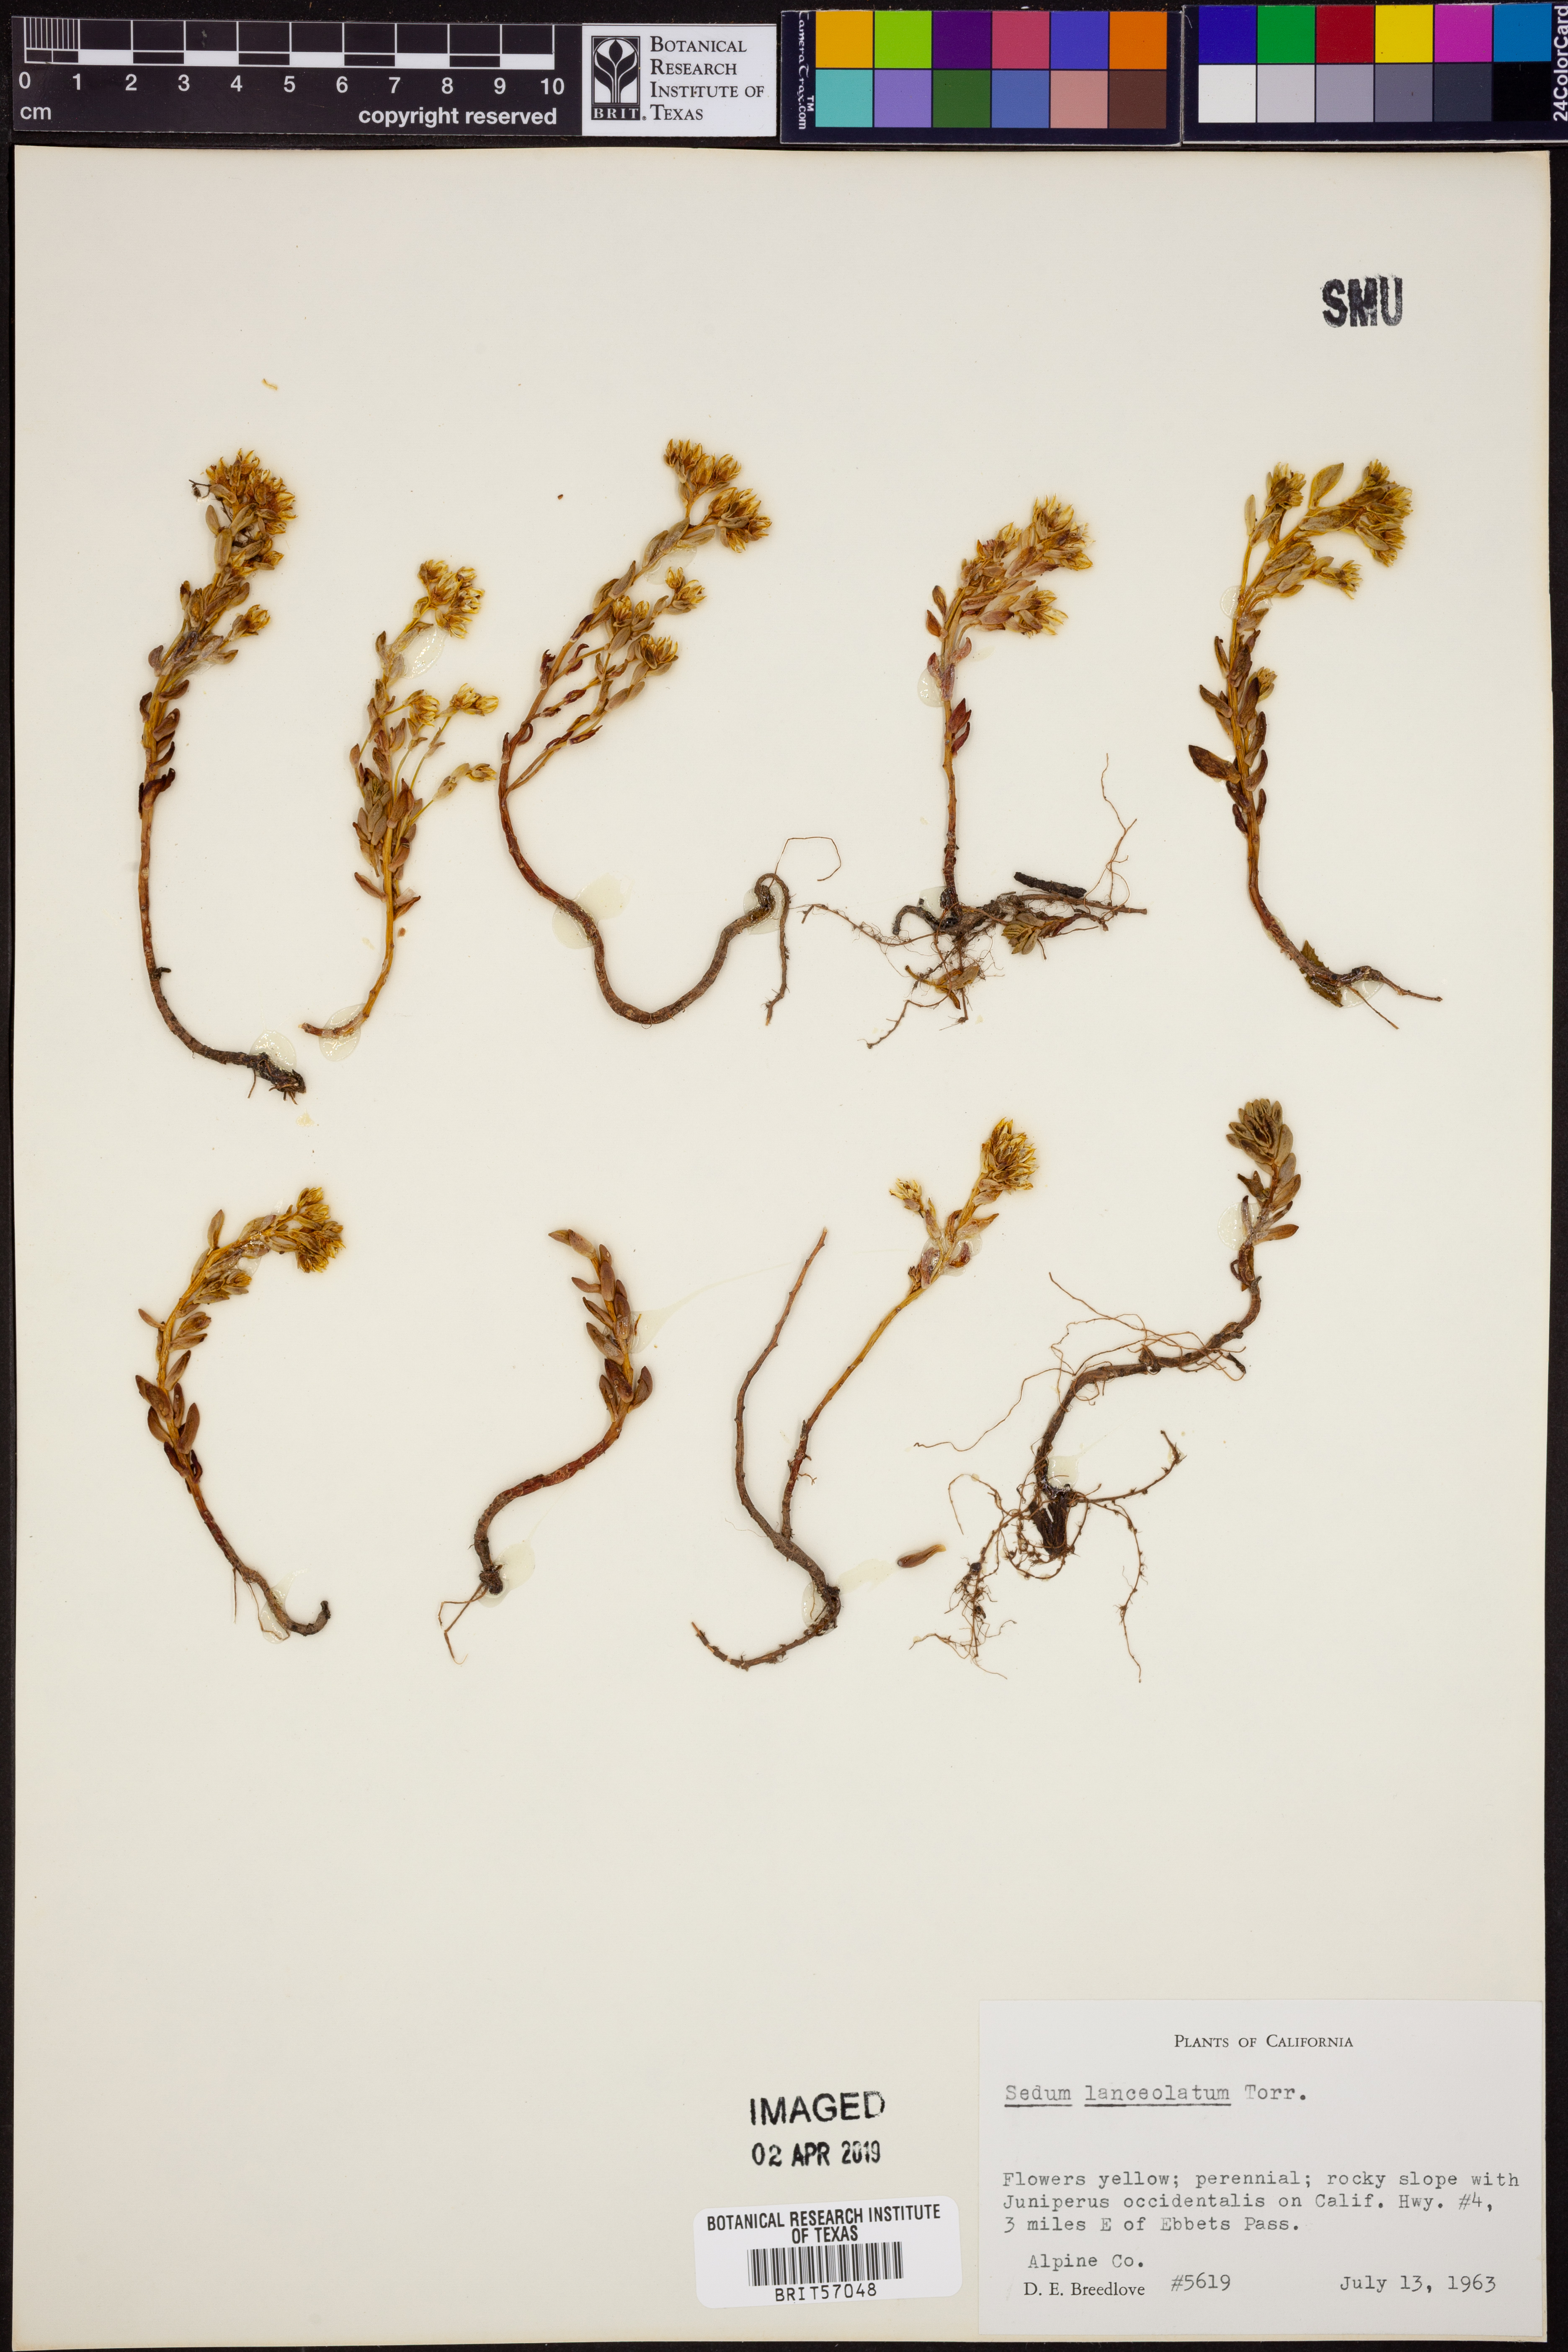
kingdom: Plantae
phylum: Tracheophyta
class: Magnoliopsida
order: Saxifragales
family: Crassulaceae
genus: Sedum
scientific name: Sedum lanceolatum
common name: Common stonecrop
